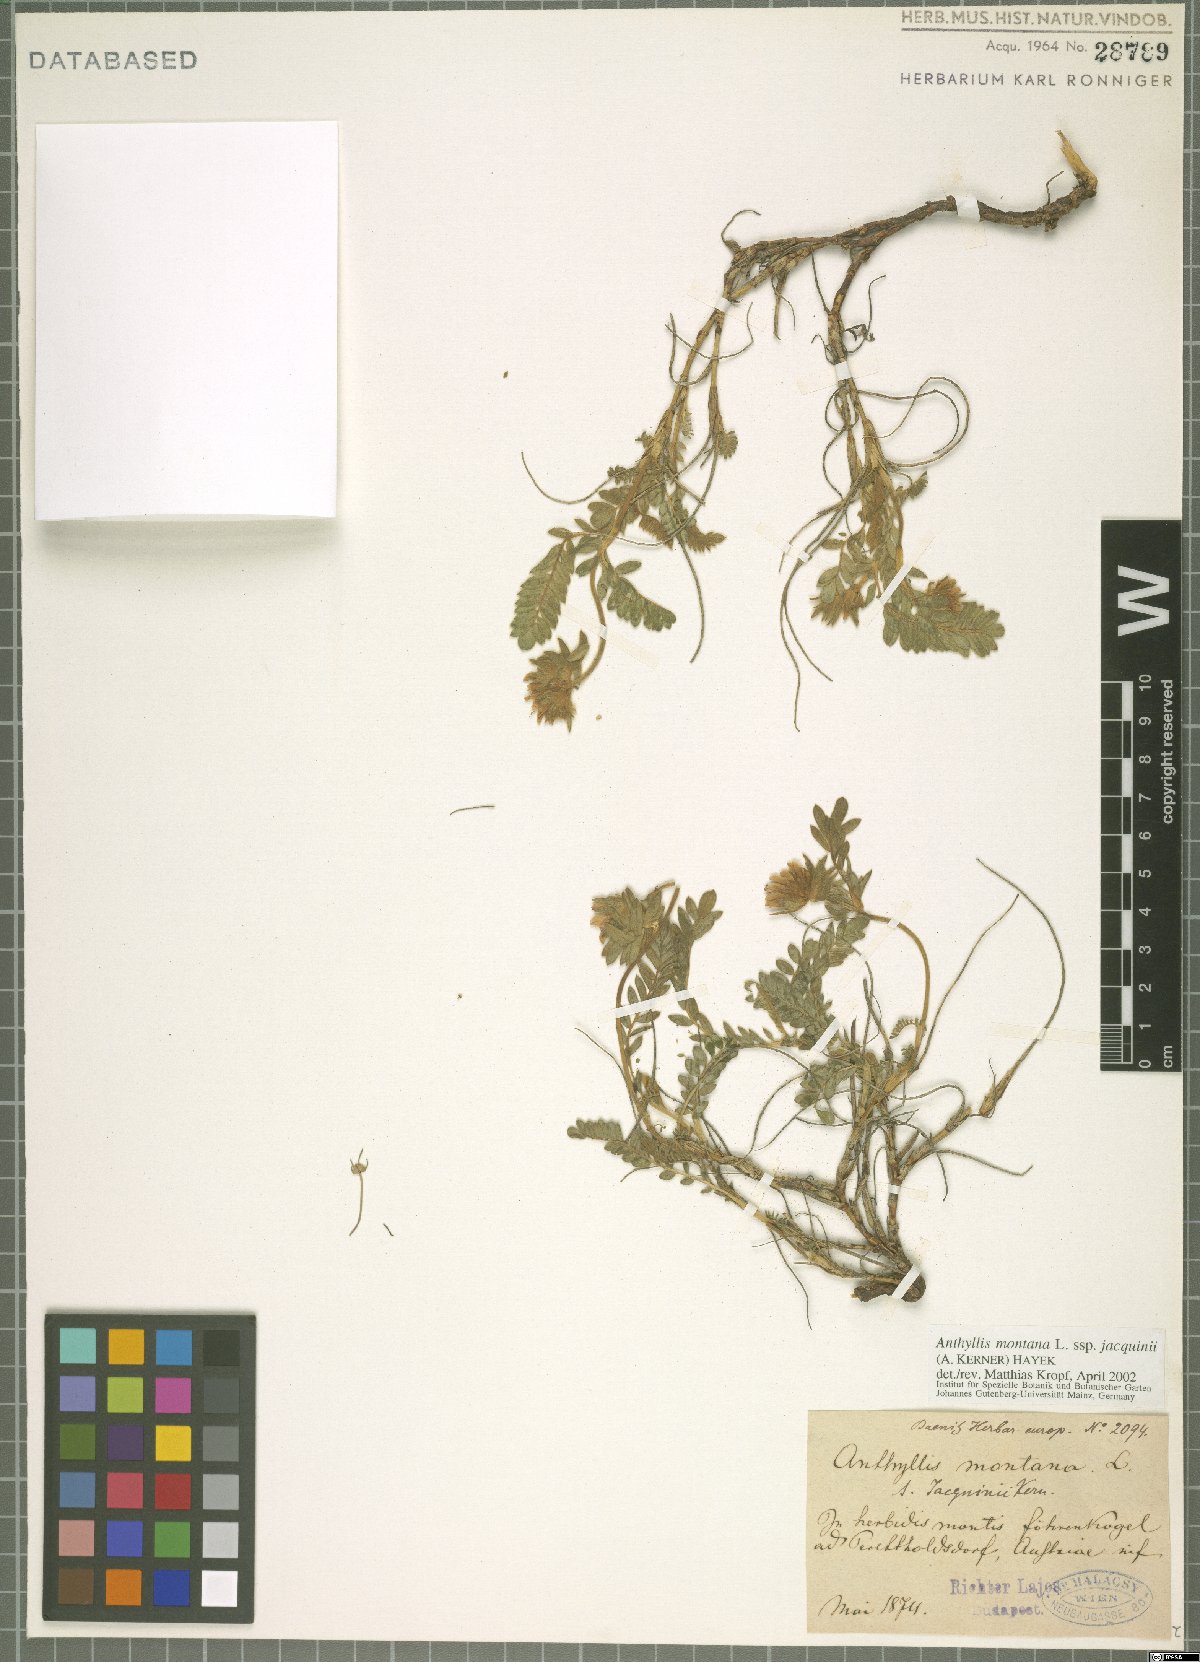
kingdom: Plantae
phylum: Tracheophyta
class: Magnoliopsida
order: Fabales
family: Fabaceae
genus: Anthyllis
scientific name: Anthyllis montana
